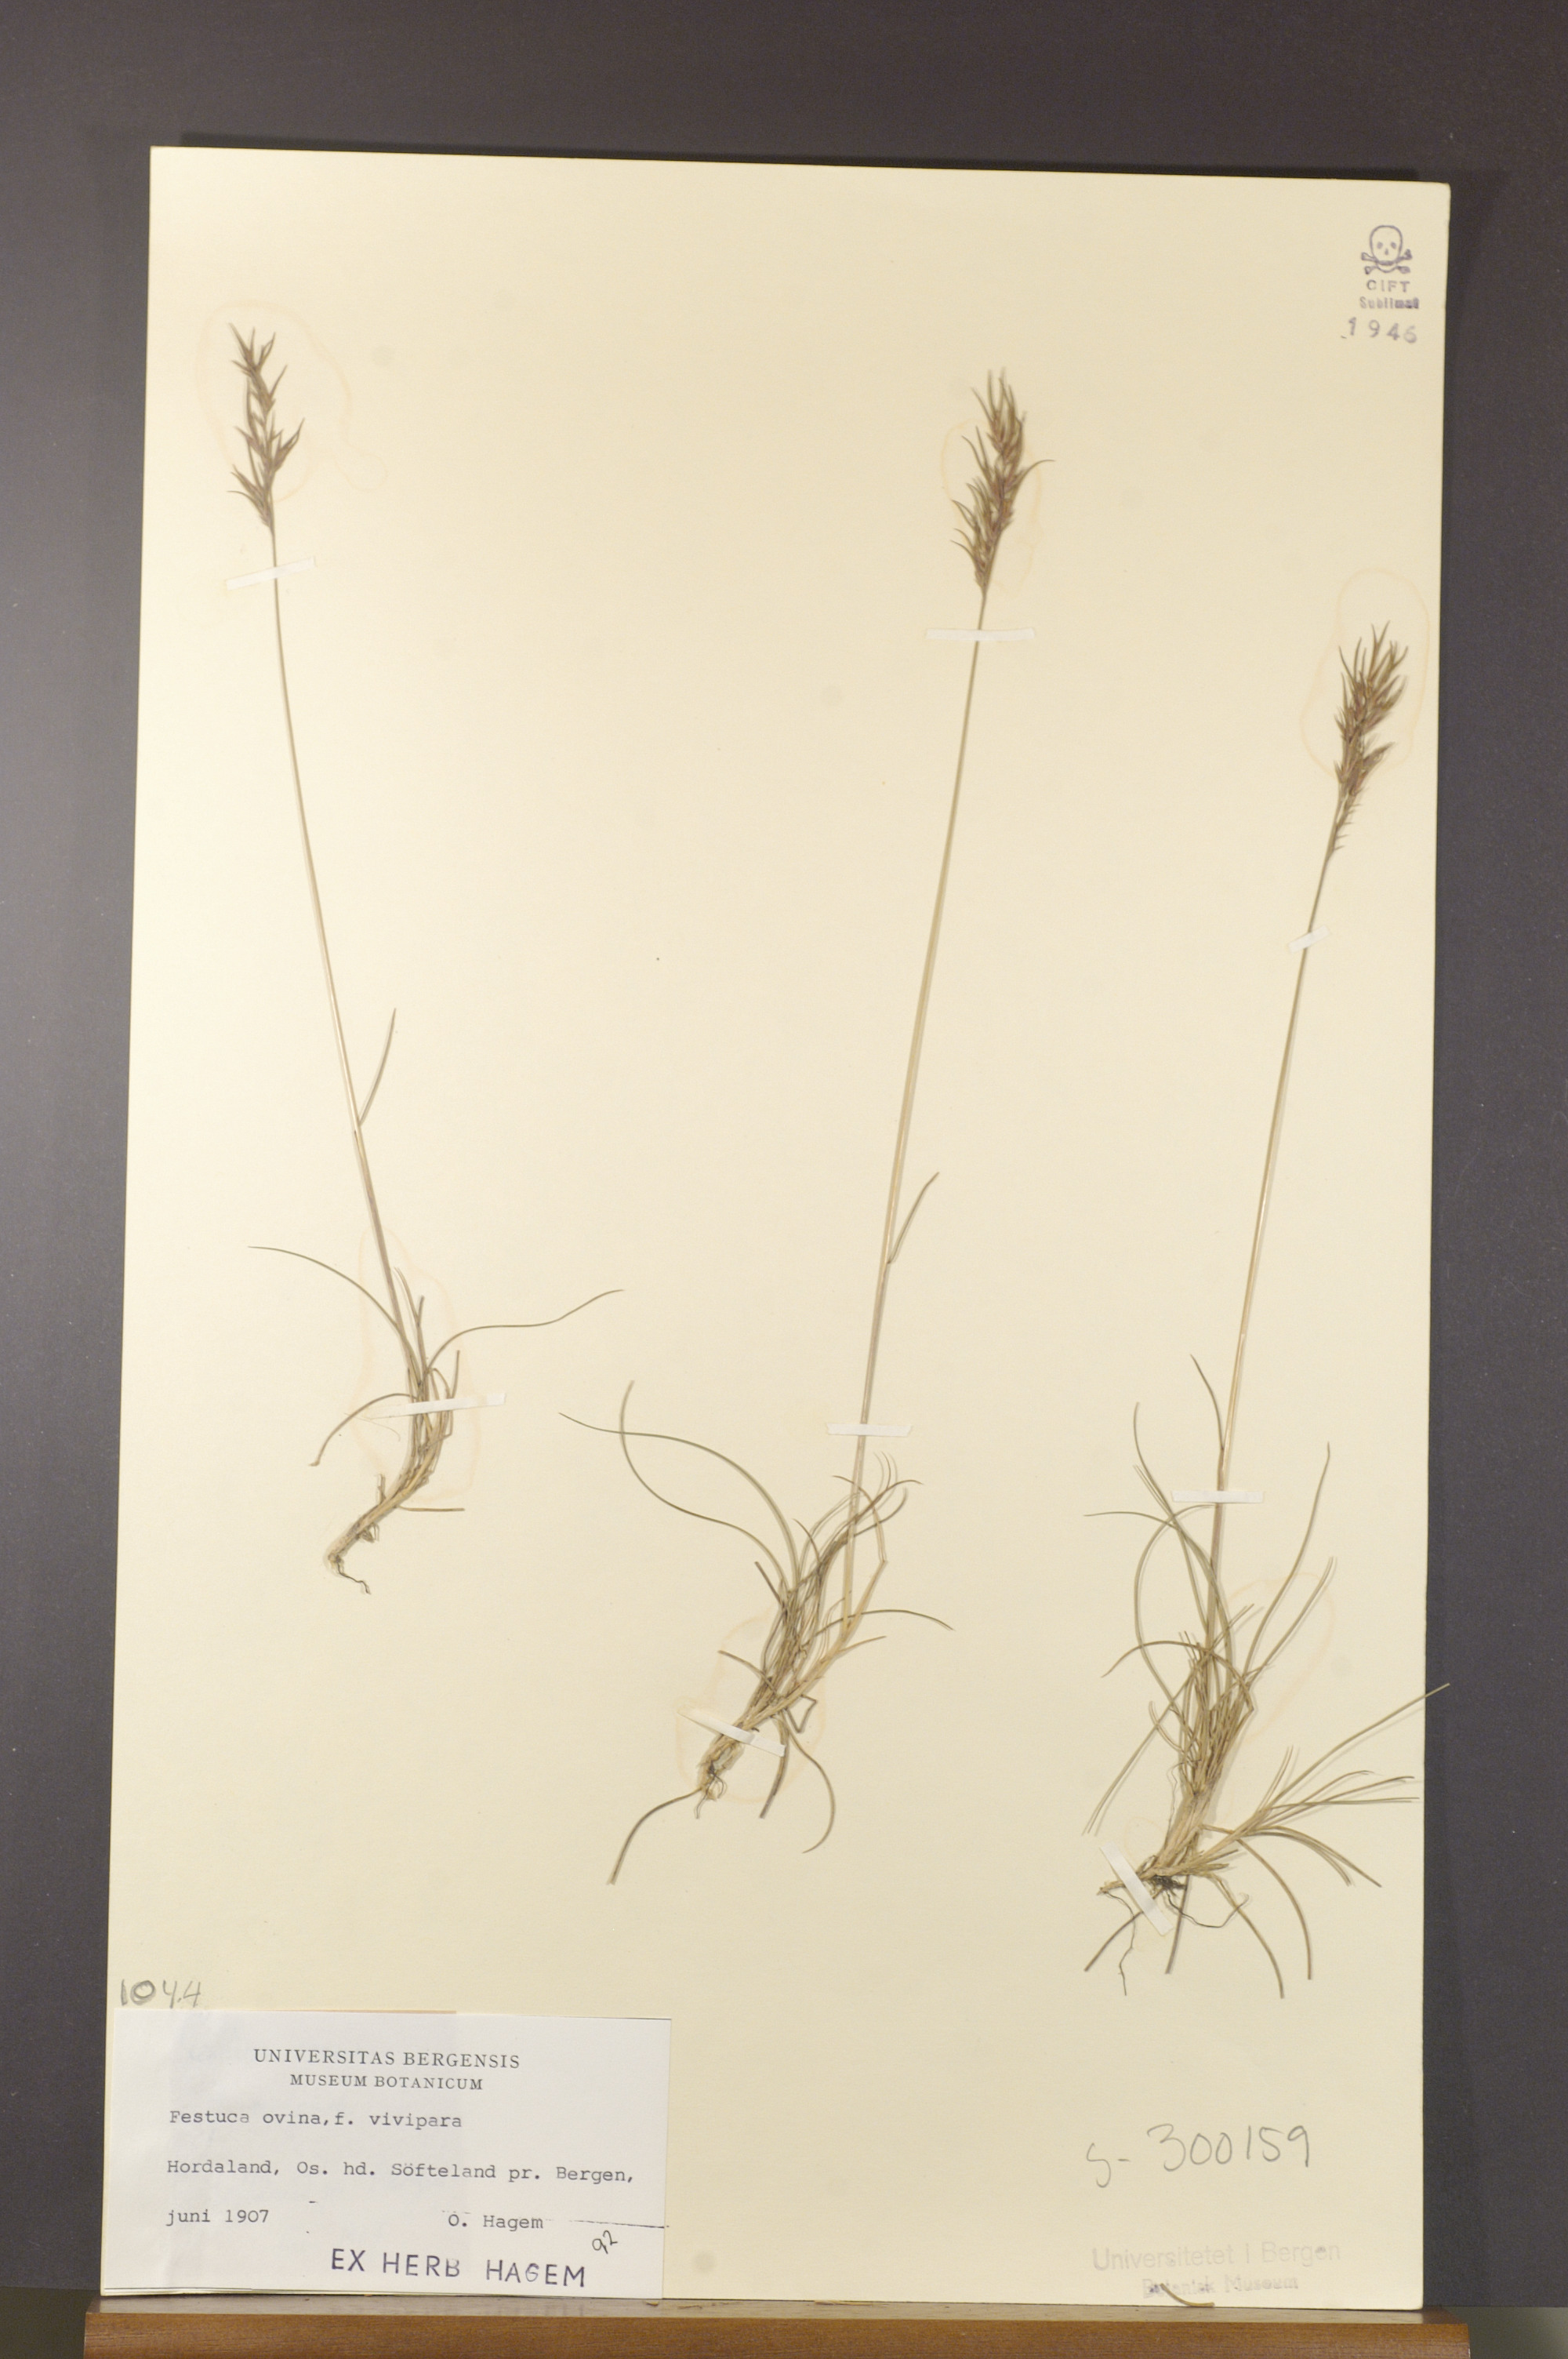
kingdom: Plantae
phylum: Tracheophyta
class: Liliopsida
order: Poales
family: Poaceae
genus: Festuca
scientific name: Festuca vivipara
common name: Viviparous sheep's-fescue
